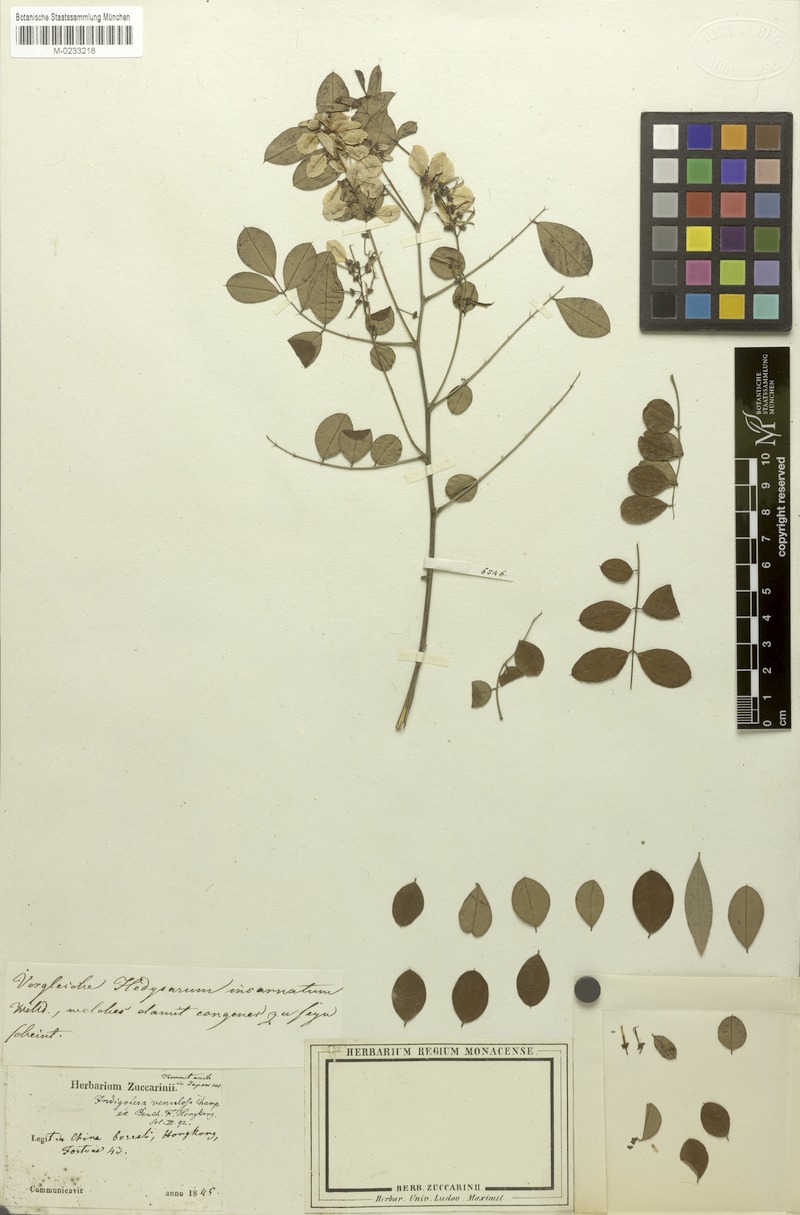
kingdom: Plantae
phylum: Tracheophyta
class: Magnoliopsida
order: Fabales
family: Fabaceae
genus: Indigofera
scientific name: Indigofera venulosa
